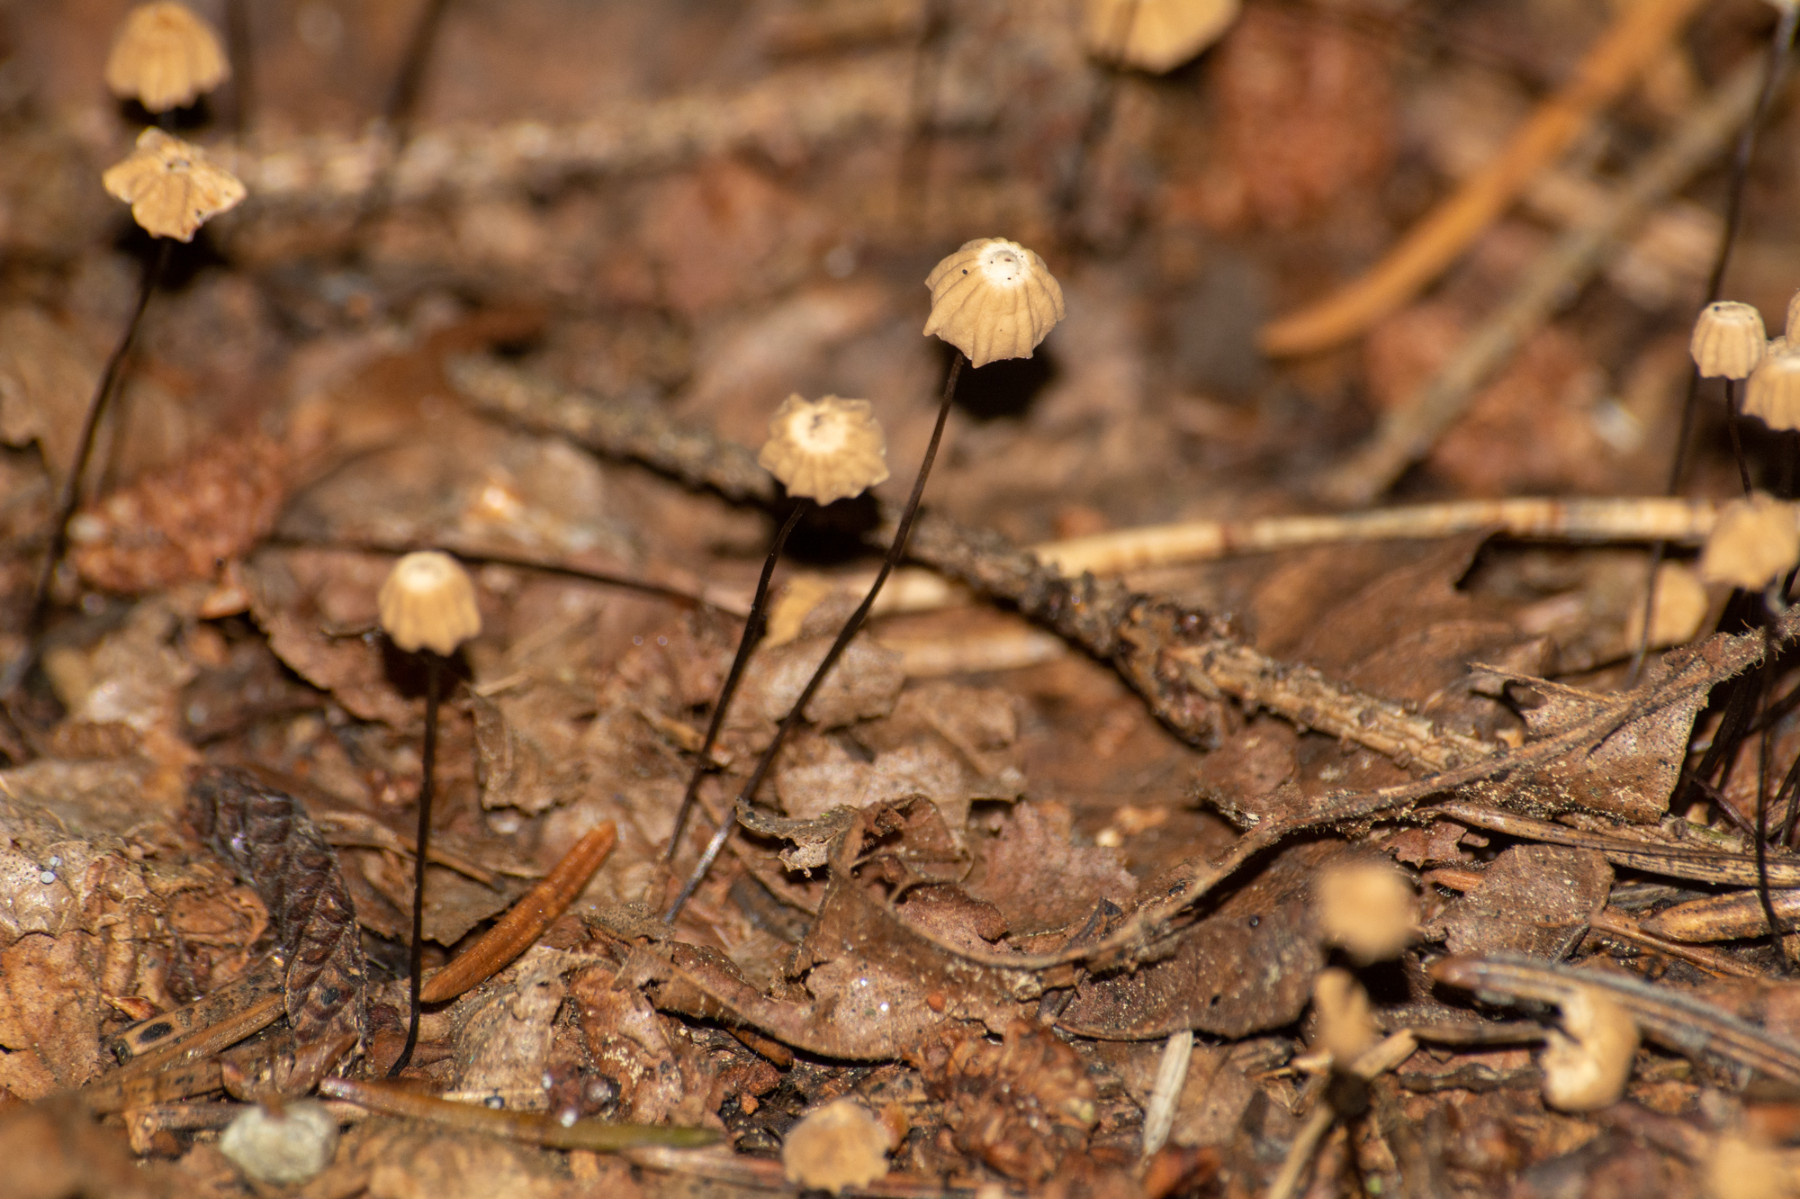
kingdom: Fungi
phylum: Basidiomycota
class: Agaricomycetes
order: Agaricales
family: Marasmiaceae
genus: Marasmius
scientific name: Marasmius
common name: bruskhat
